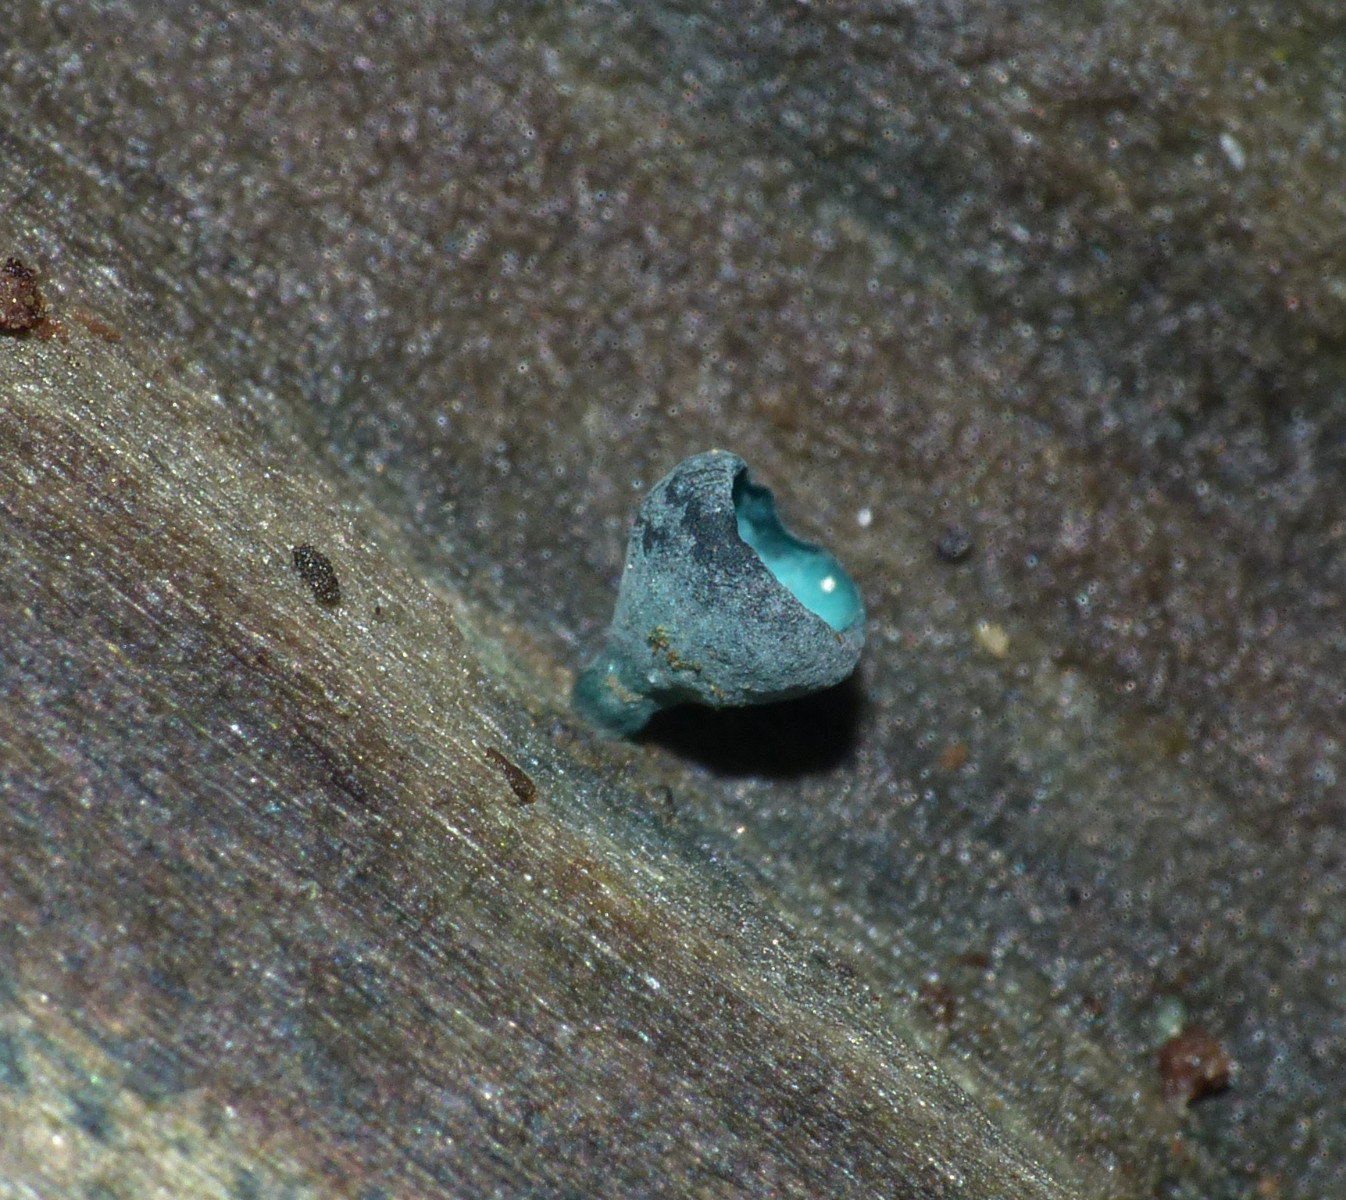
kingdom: Fungi
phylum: Ascomycota
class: Leotiomycetes
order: Helotiales
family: Chlorociboriaceae
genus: Chlorociboria
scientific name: Chlorociboria aeruginascens
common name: almindelig grønskive
